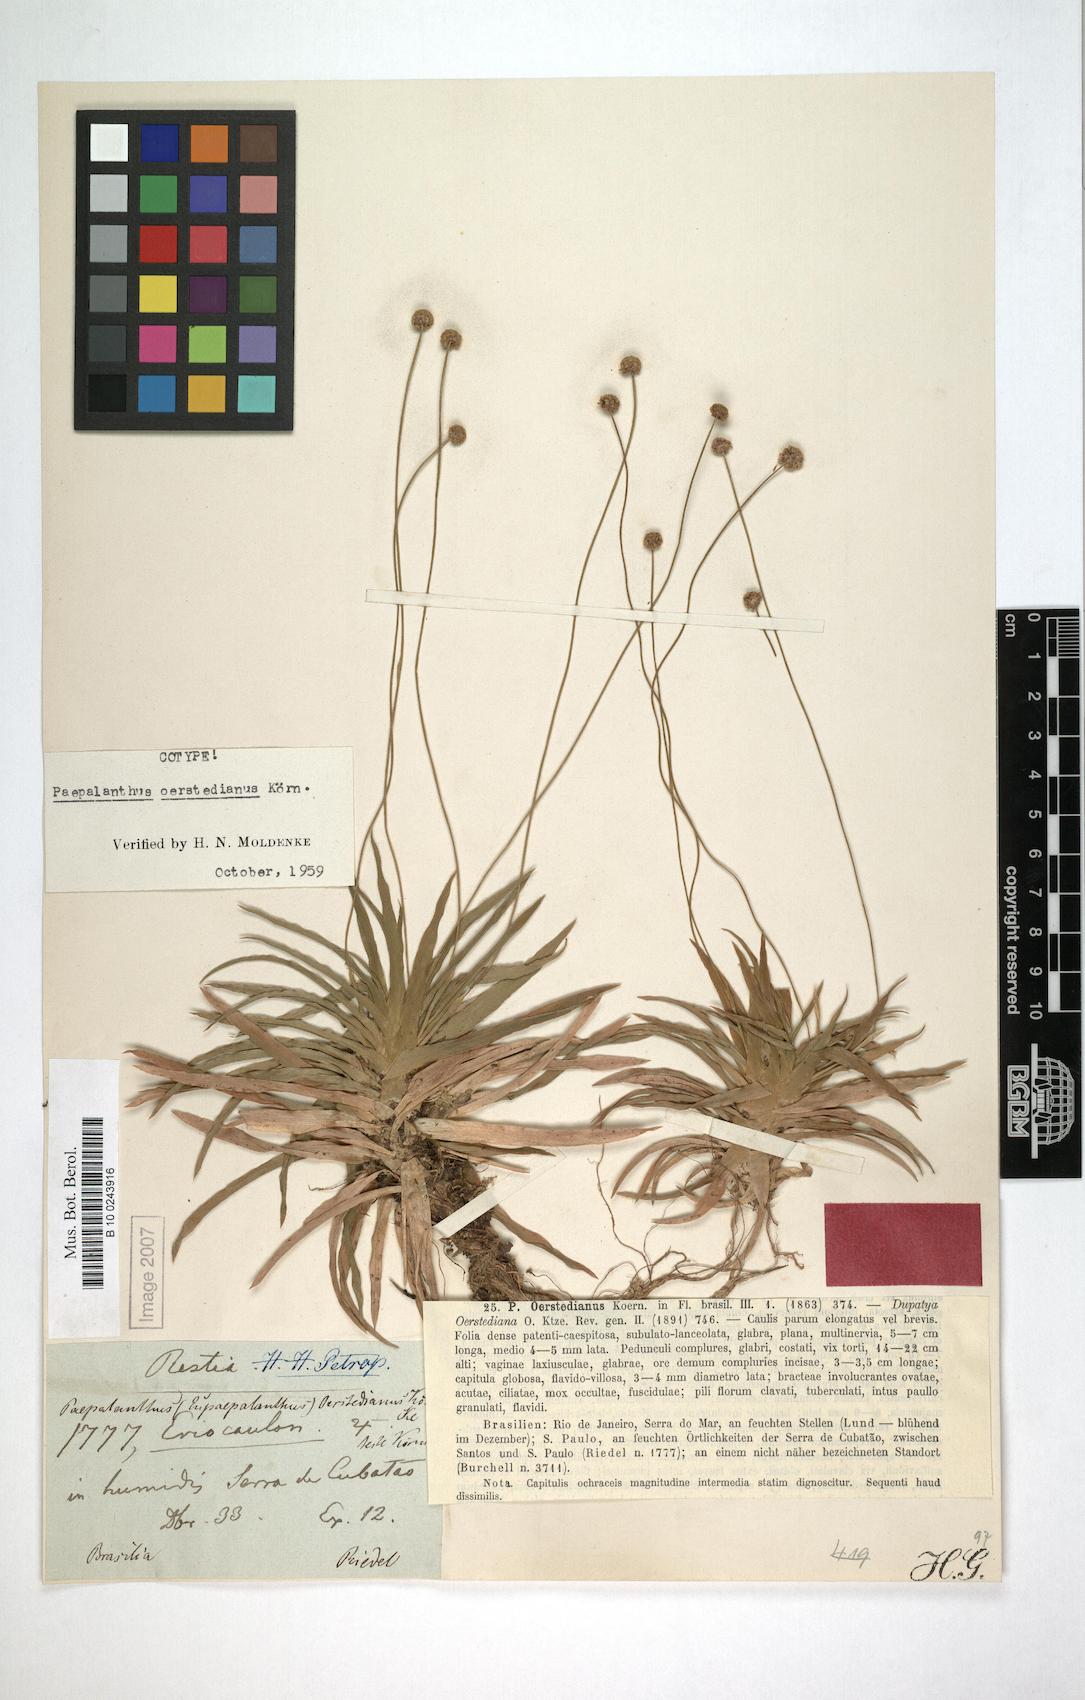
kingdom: Plantae
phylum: Tracheophyta
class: Liliopsida
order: Poales
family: Eriocaulaceae
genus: Paepalanthus
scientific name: Paepalanthus oerstedianus
